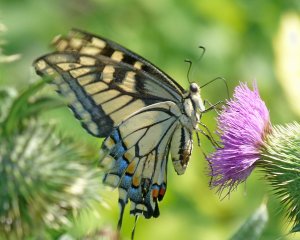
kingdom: Animalia
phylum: Arthropoda
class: Insecta
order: Lepidoptera
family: Papilionidae
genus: Papilio
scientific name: Papilio zelicaon
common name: Anise Swallowtail
